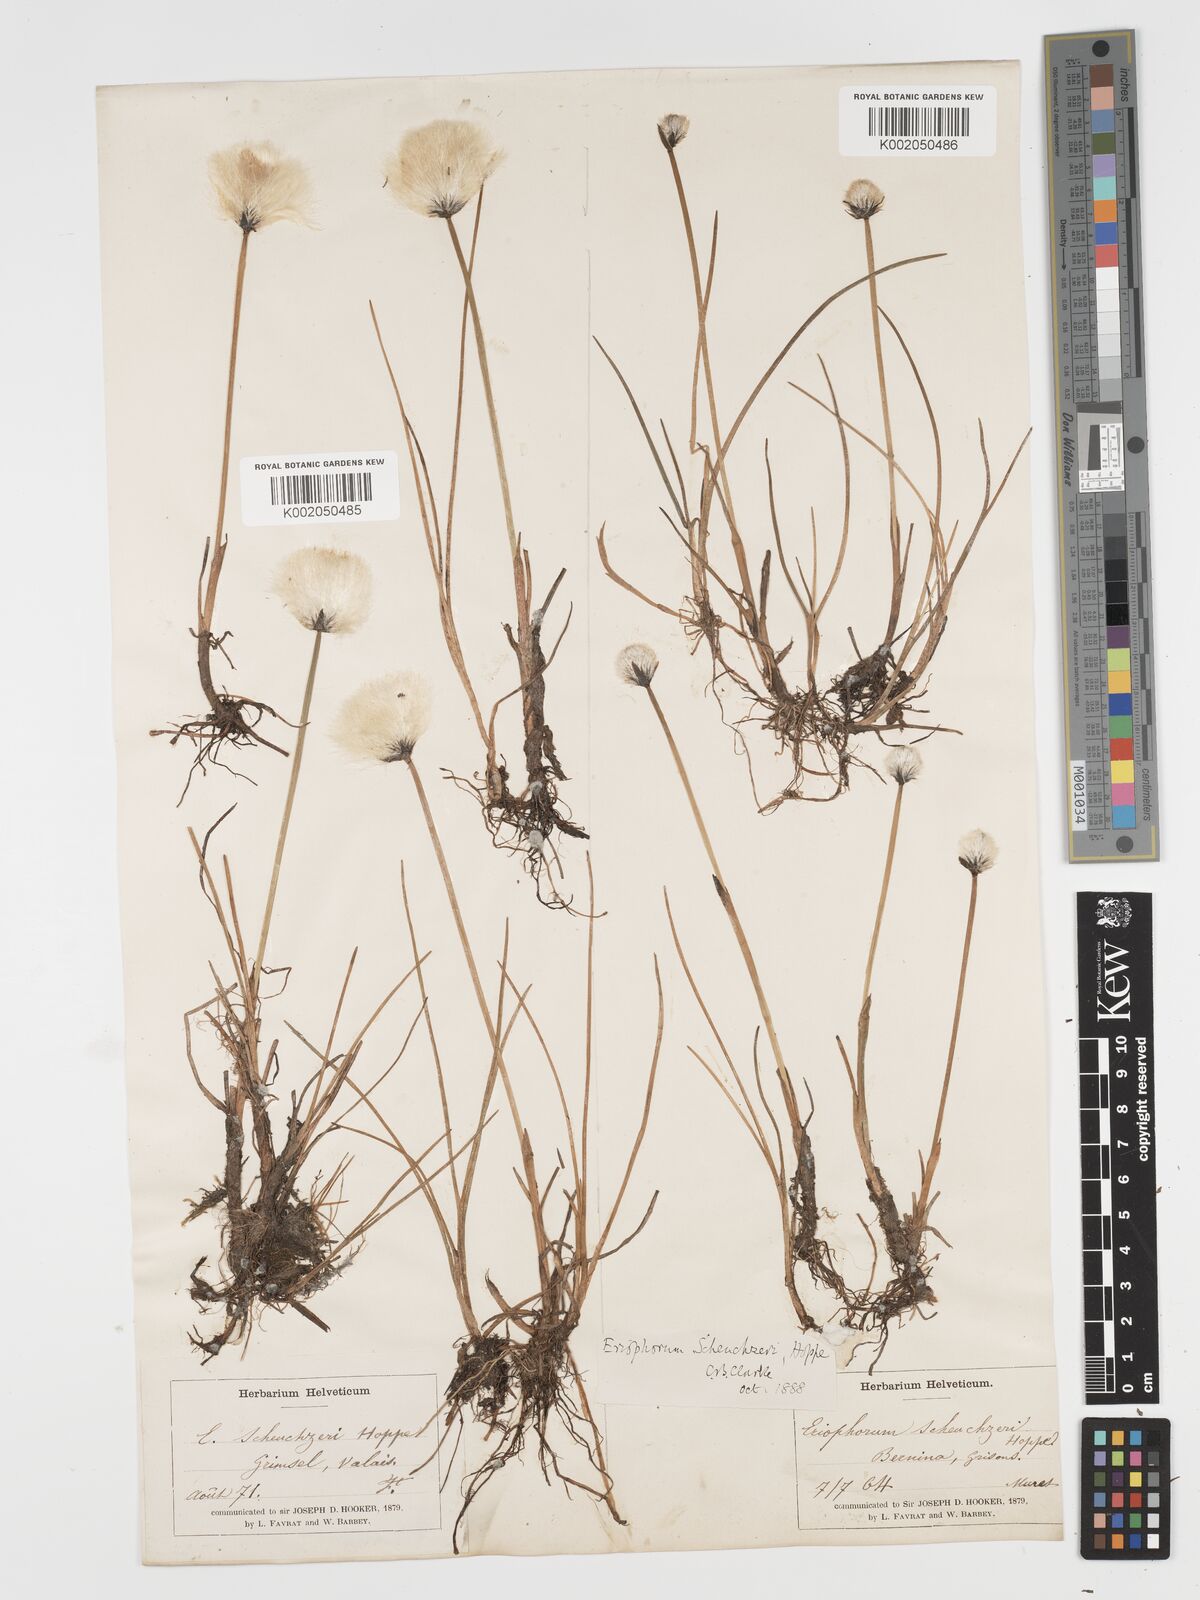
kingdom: Plantae
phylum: Tracheophyta
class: Liliopsida
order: Poales
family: Cyperaceae
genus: Eriophorum
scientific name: Eriophorum scheuchzeri
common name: Scheuchzer's cottongrass
